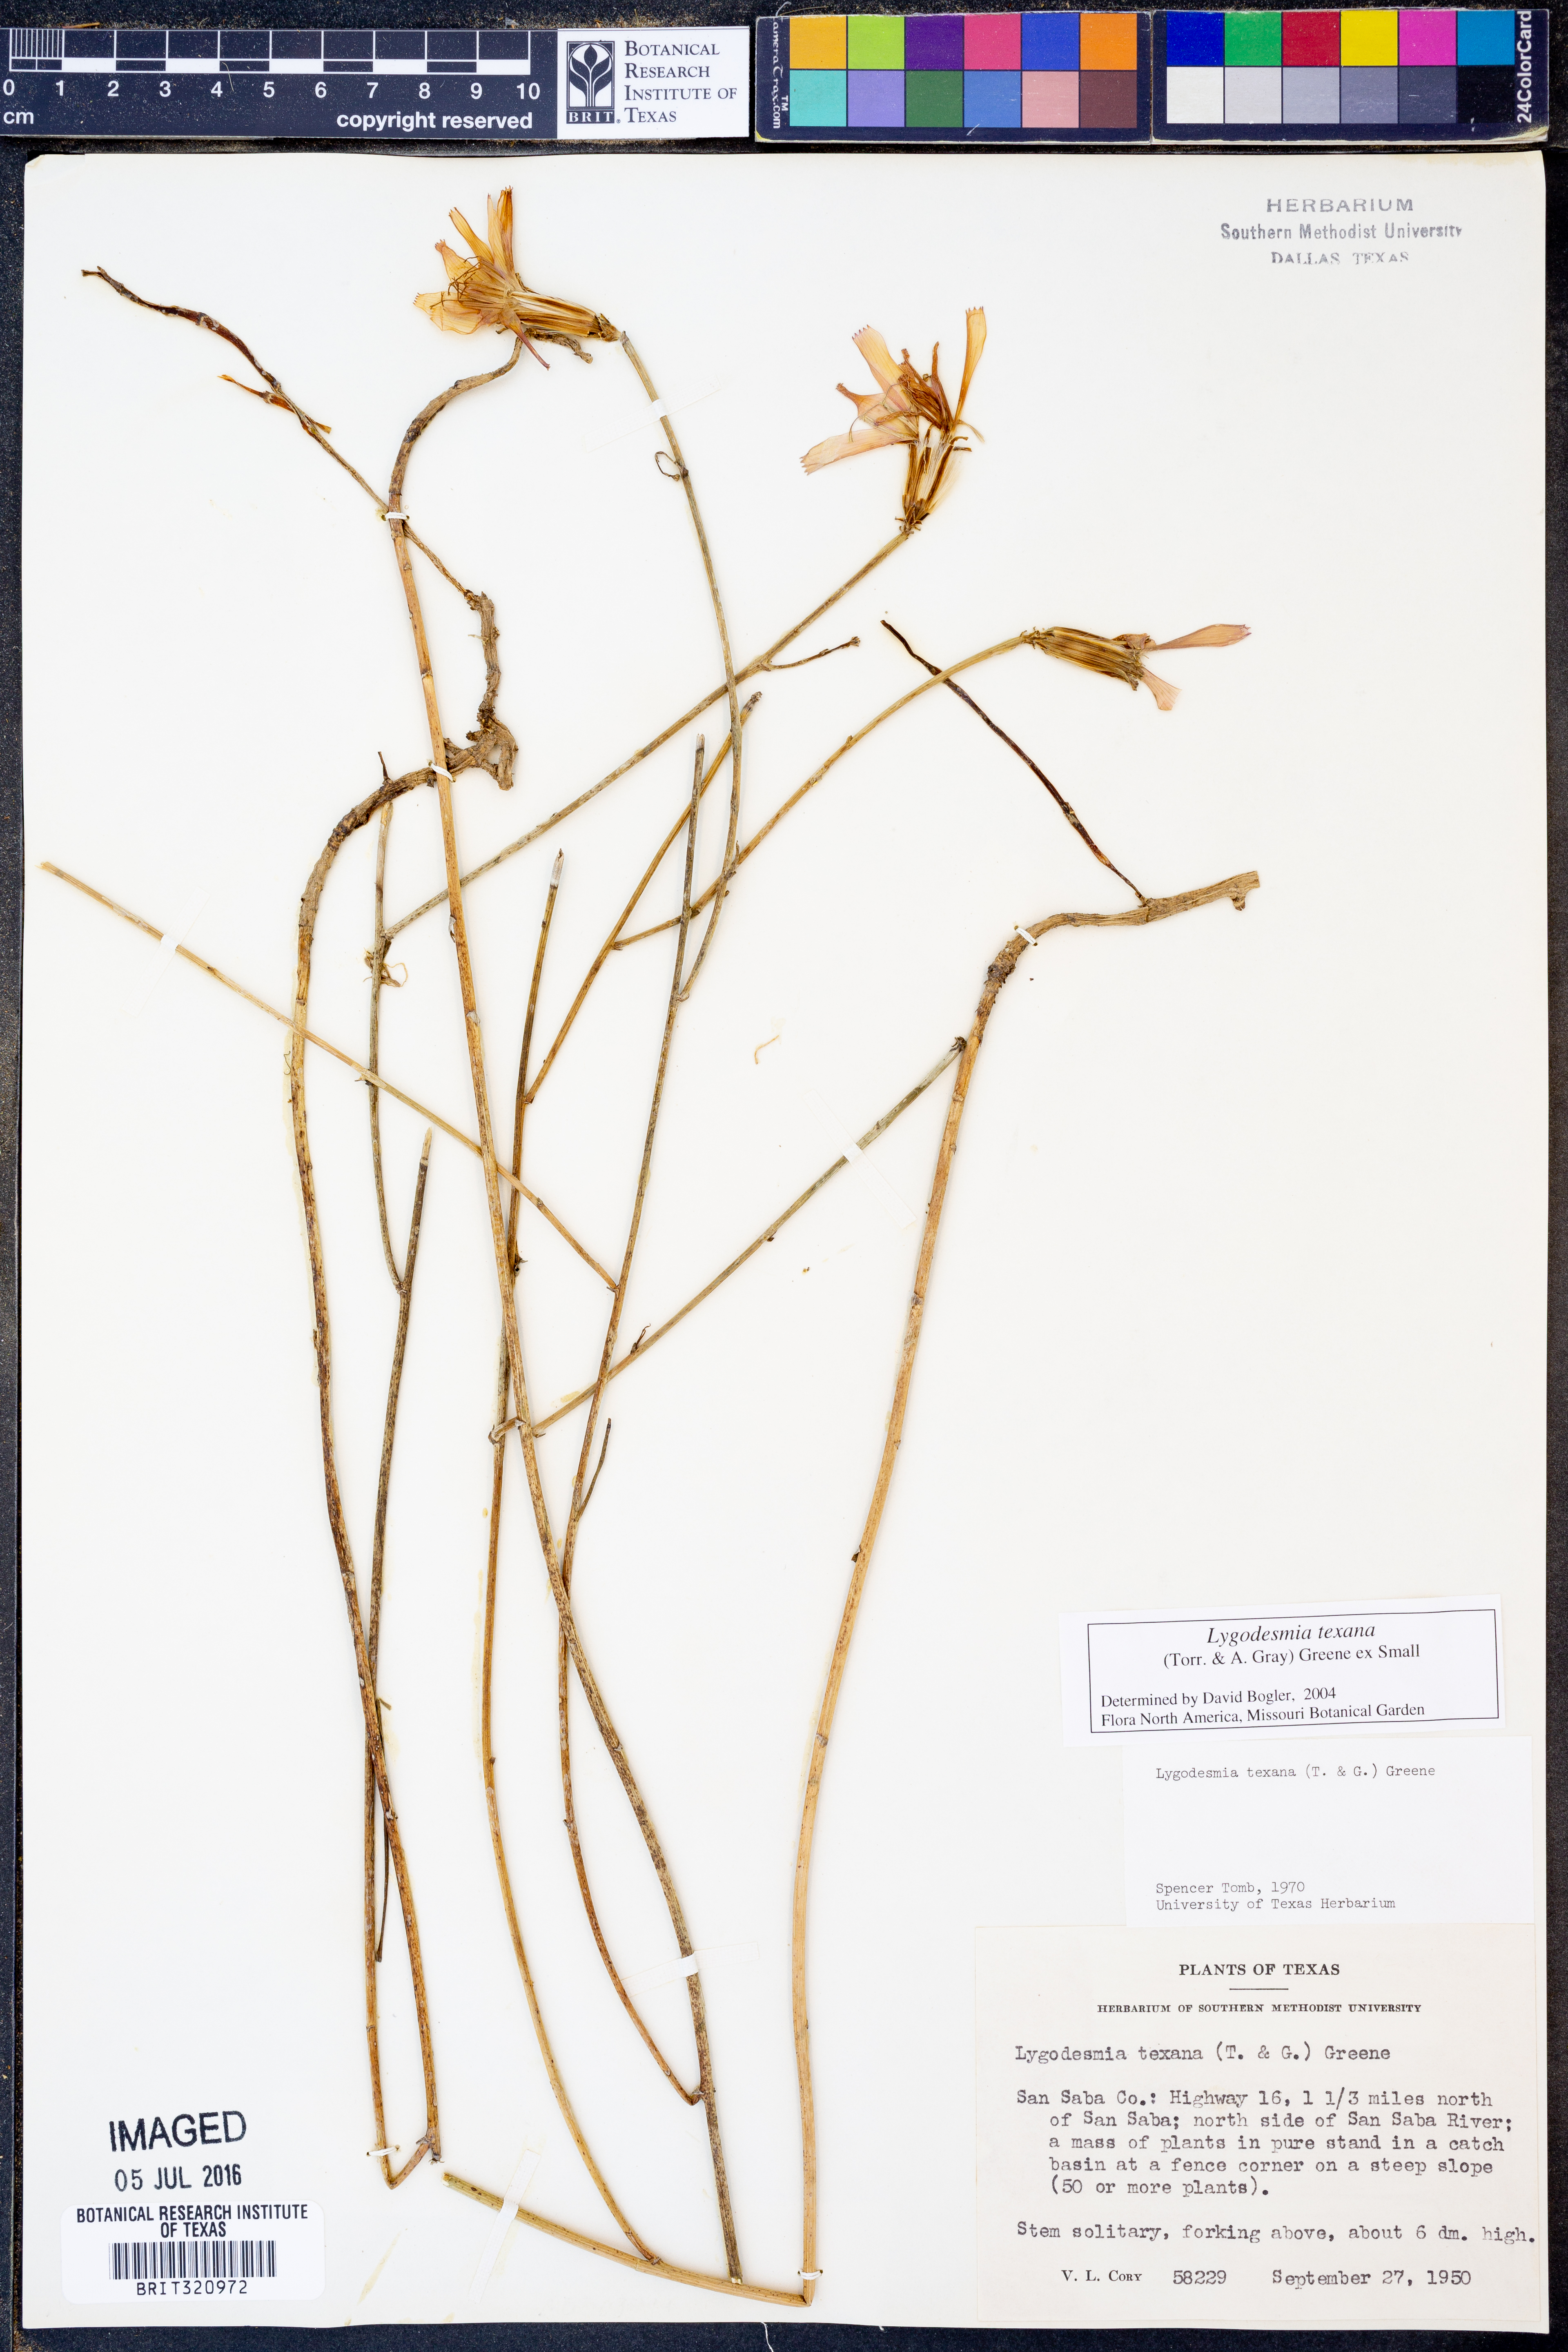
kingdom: Plantae
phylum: Tracheophyta
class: Magnoliopsida
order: Asterales
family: Asteraceae
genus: Lygodesmia
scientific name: Lygodesmia texana
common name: Texas skeleton-plant
